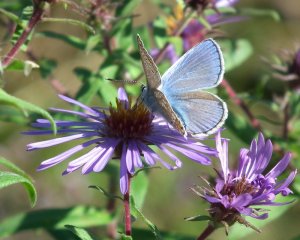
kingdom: Animalia
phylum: Arthropoda
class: Insecta
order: Lepidoptera
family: Lycaenidae
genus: Polyommatus
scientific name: Polyommatus icarus
